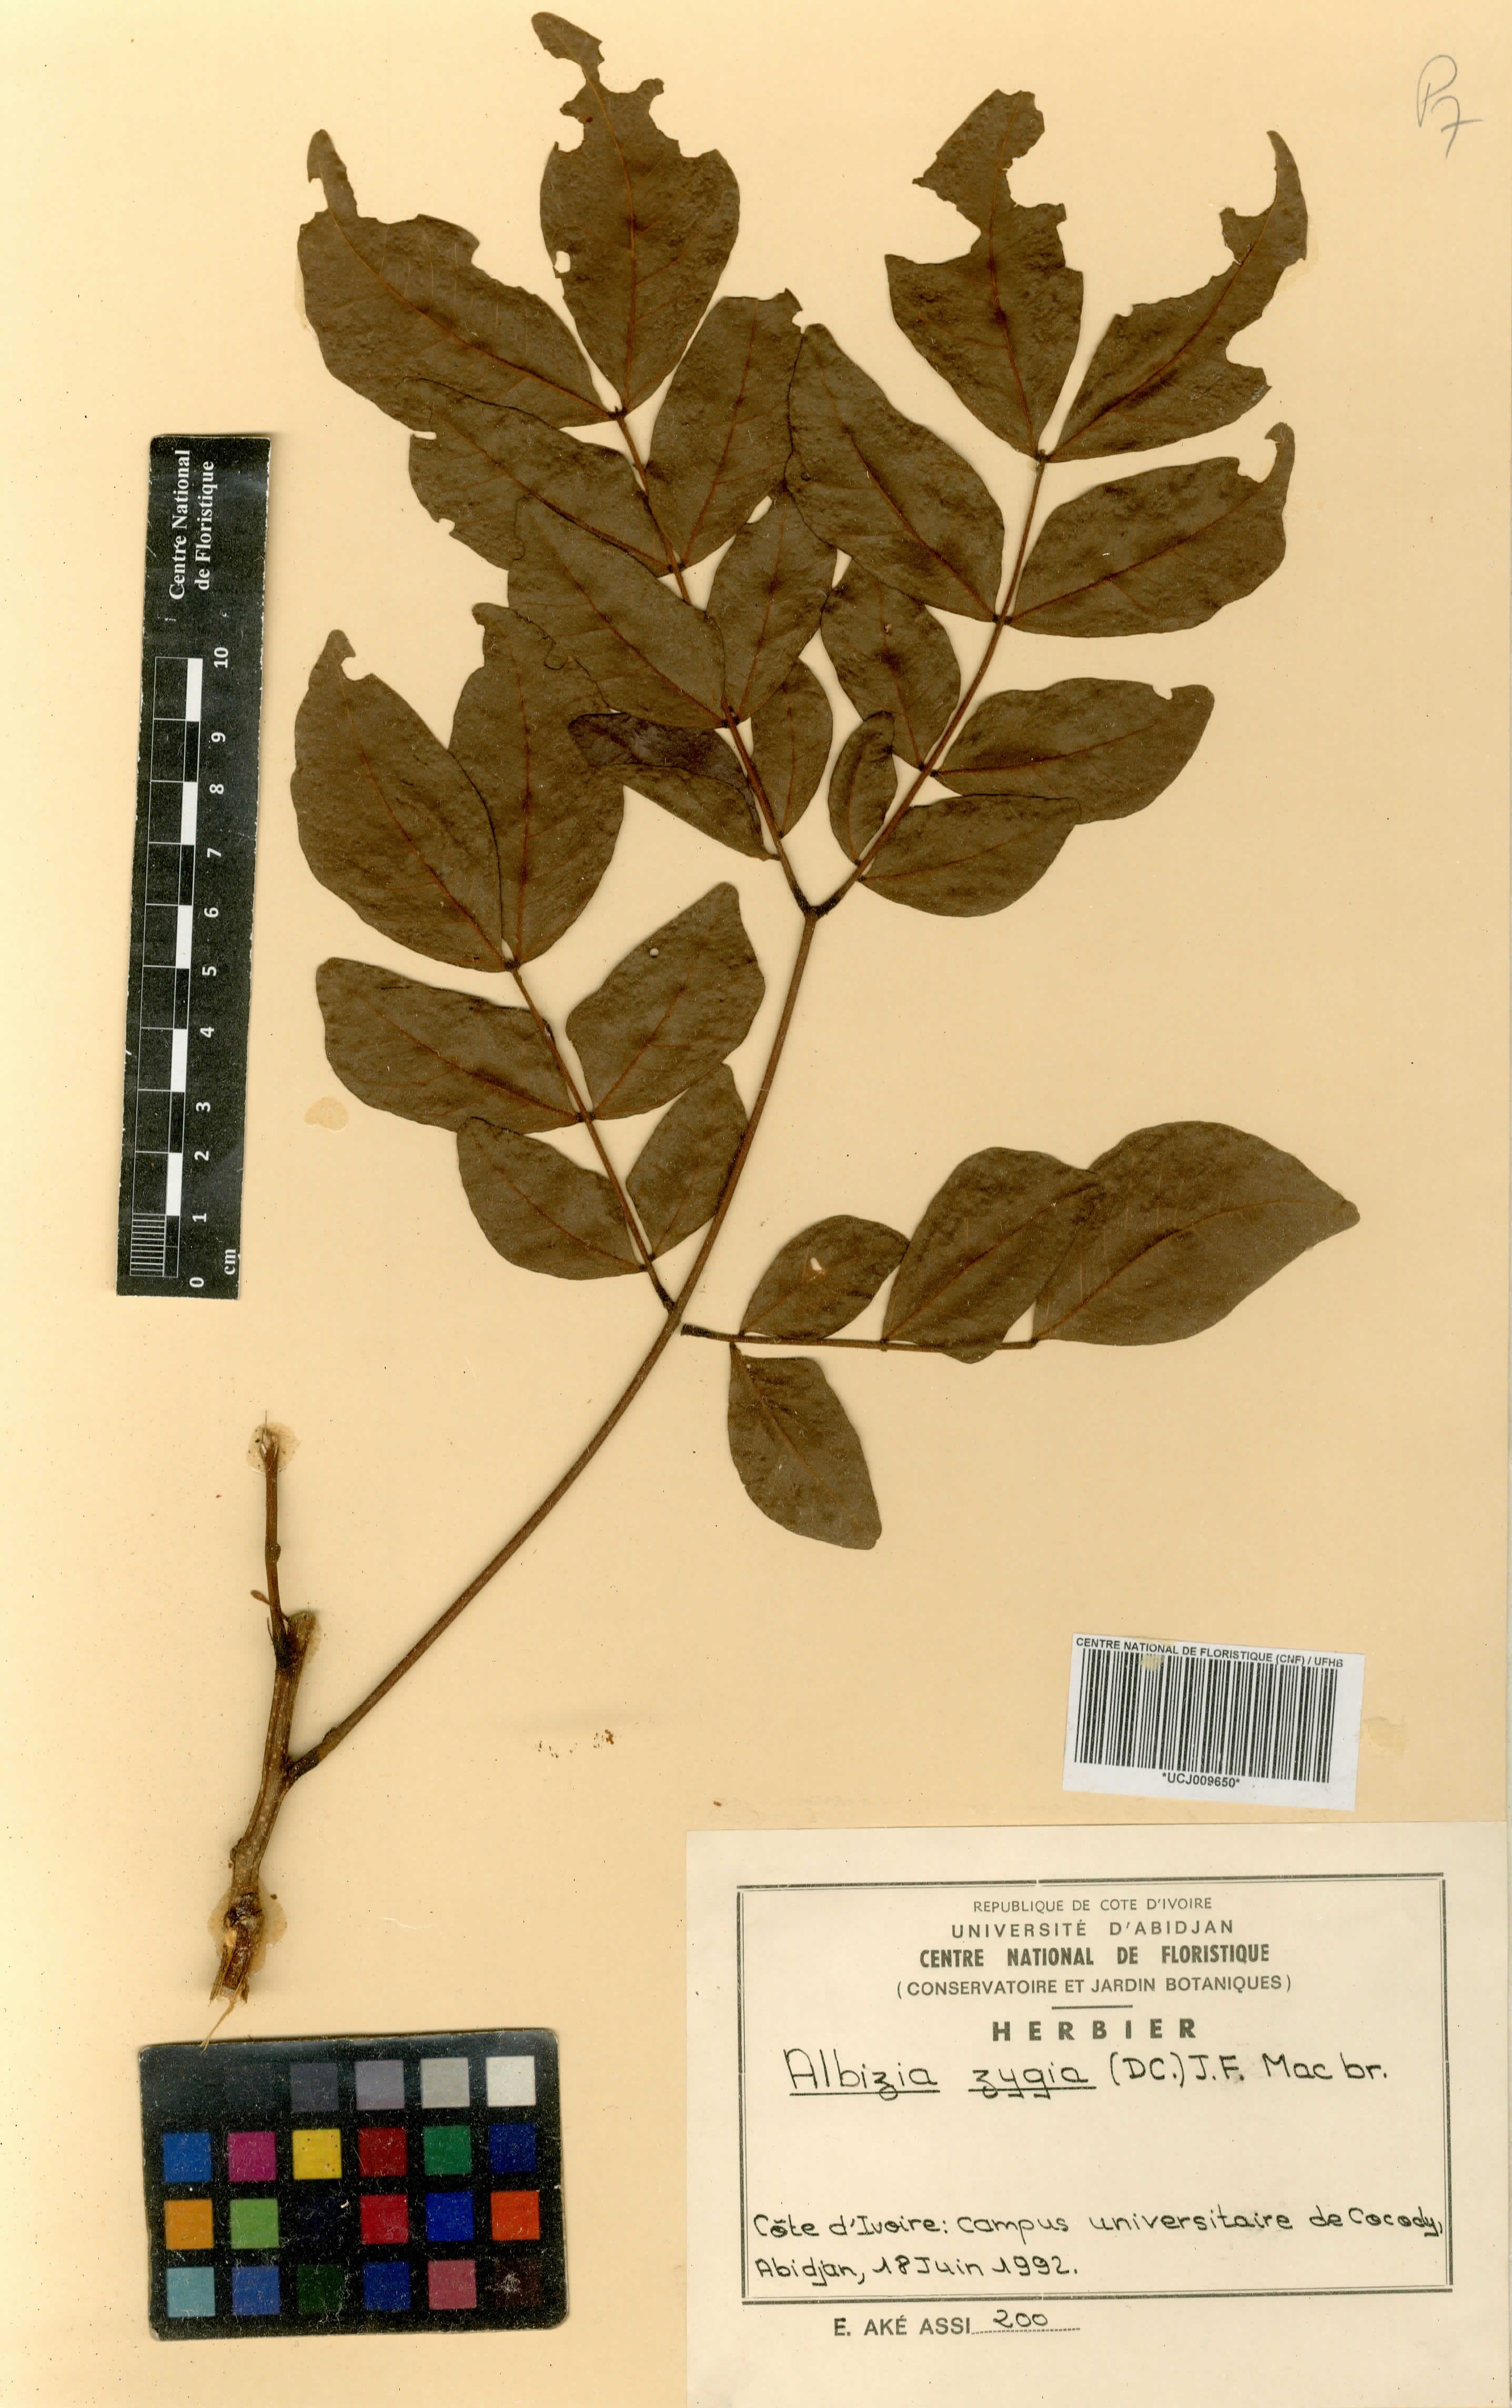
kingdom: Plantae
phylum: Tracheophyta
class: Magnoliopsida
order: Fabales
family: Fabaceae
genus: Albizia
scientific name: Albizia zygia
